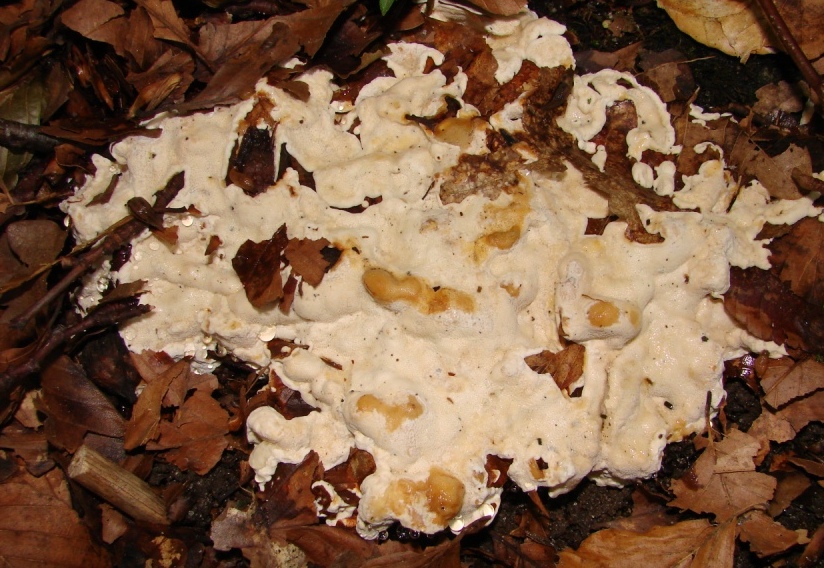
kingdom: Fungi
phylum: Basidiomycota
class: Agaricomycetes
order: Russulales
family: Bondarzewiaceae
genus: Heterobasidion
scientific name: Heterobasidion annosum
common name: almindelig rodfordærver
